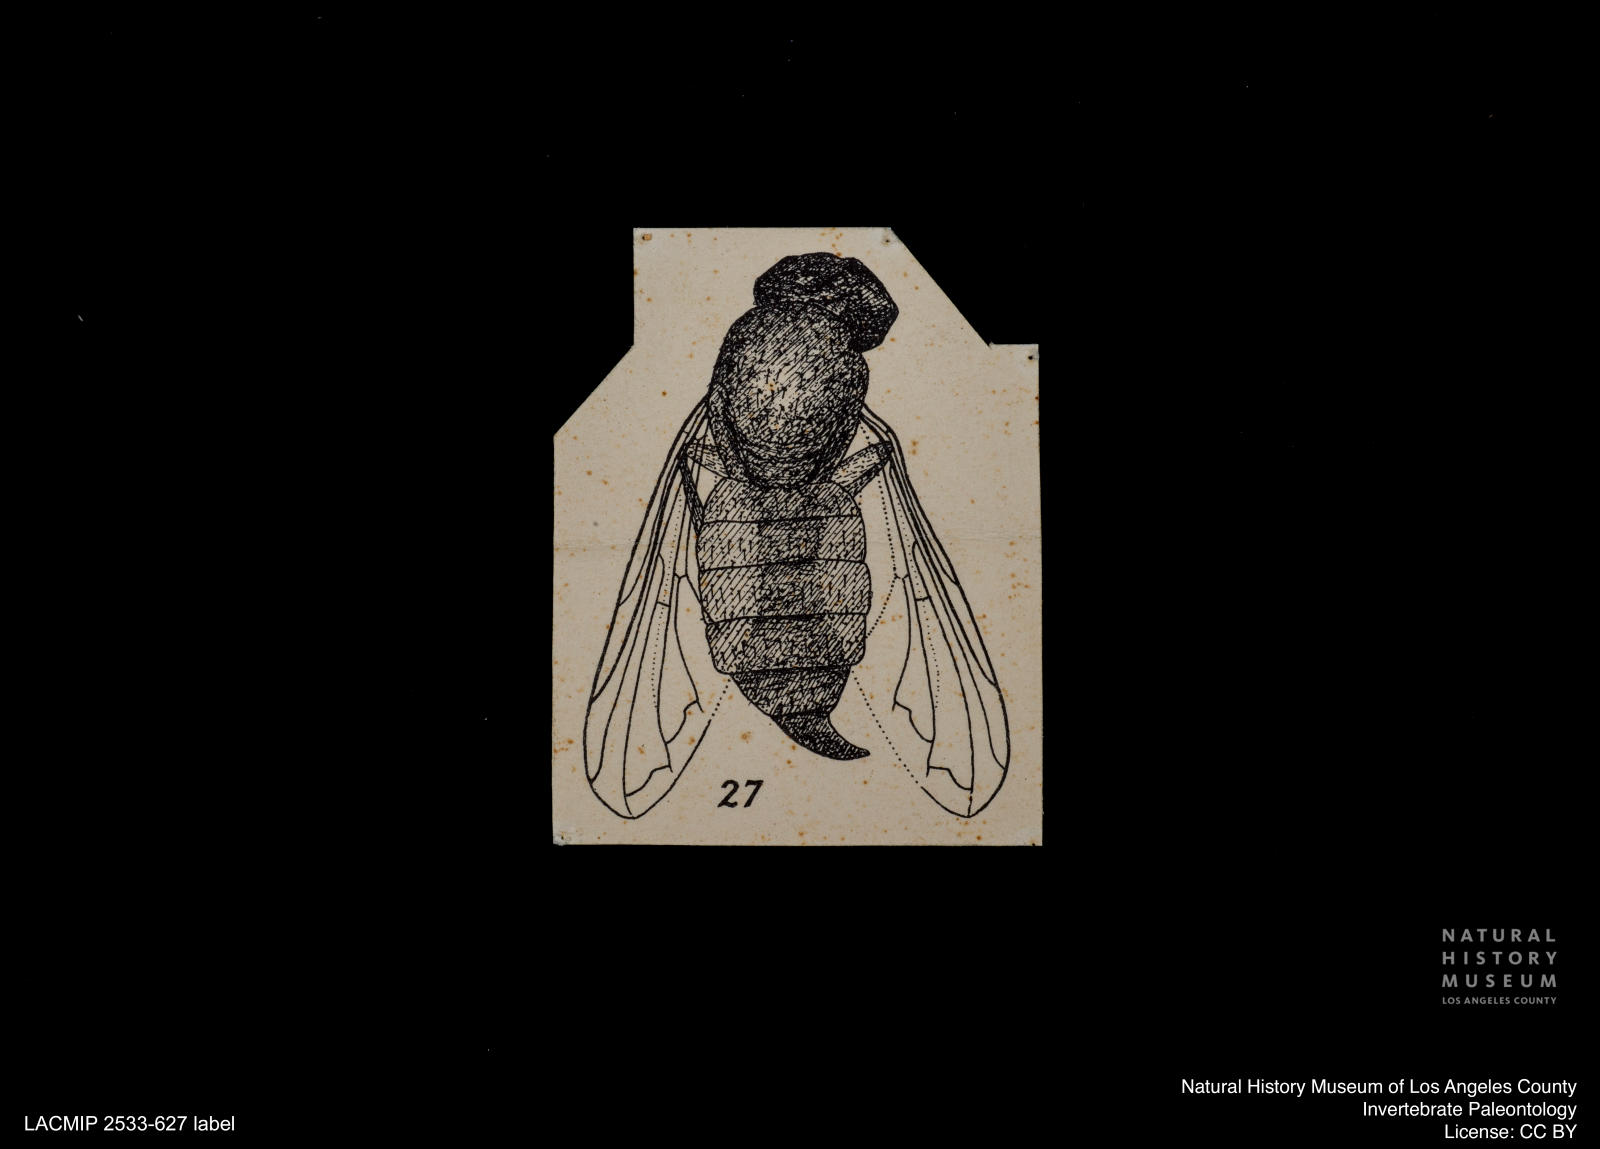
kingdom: Animalia
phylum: Arthropoda
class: Insecta
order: Diptera
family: Syrphidae
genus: Cheilosia
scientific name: Cheilosia Chilosia picata
